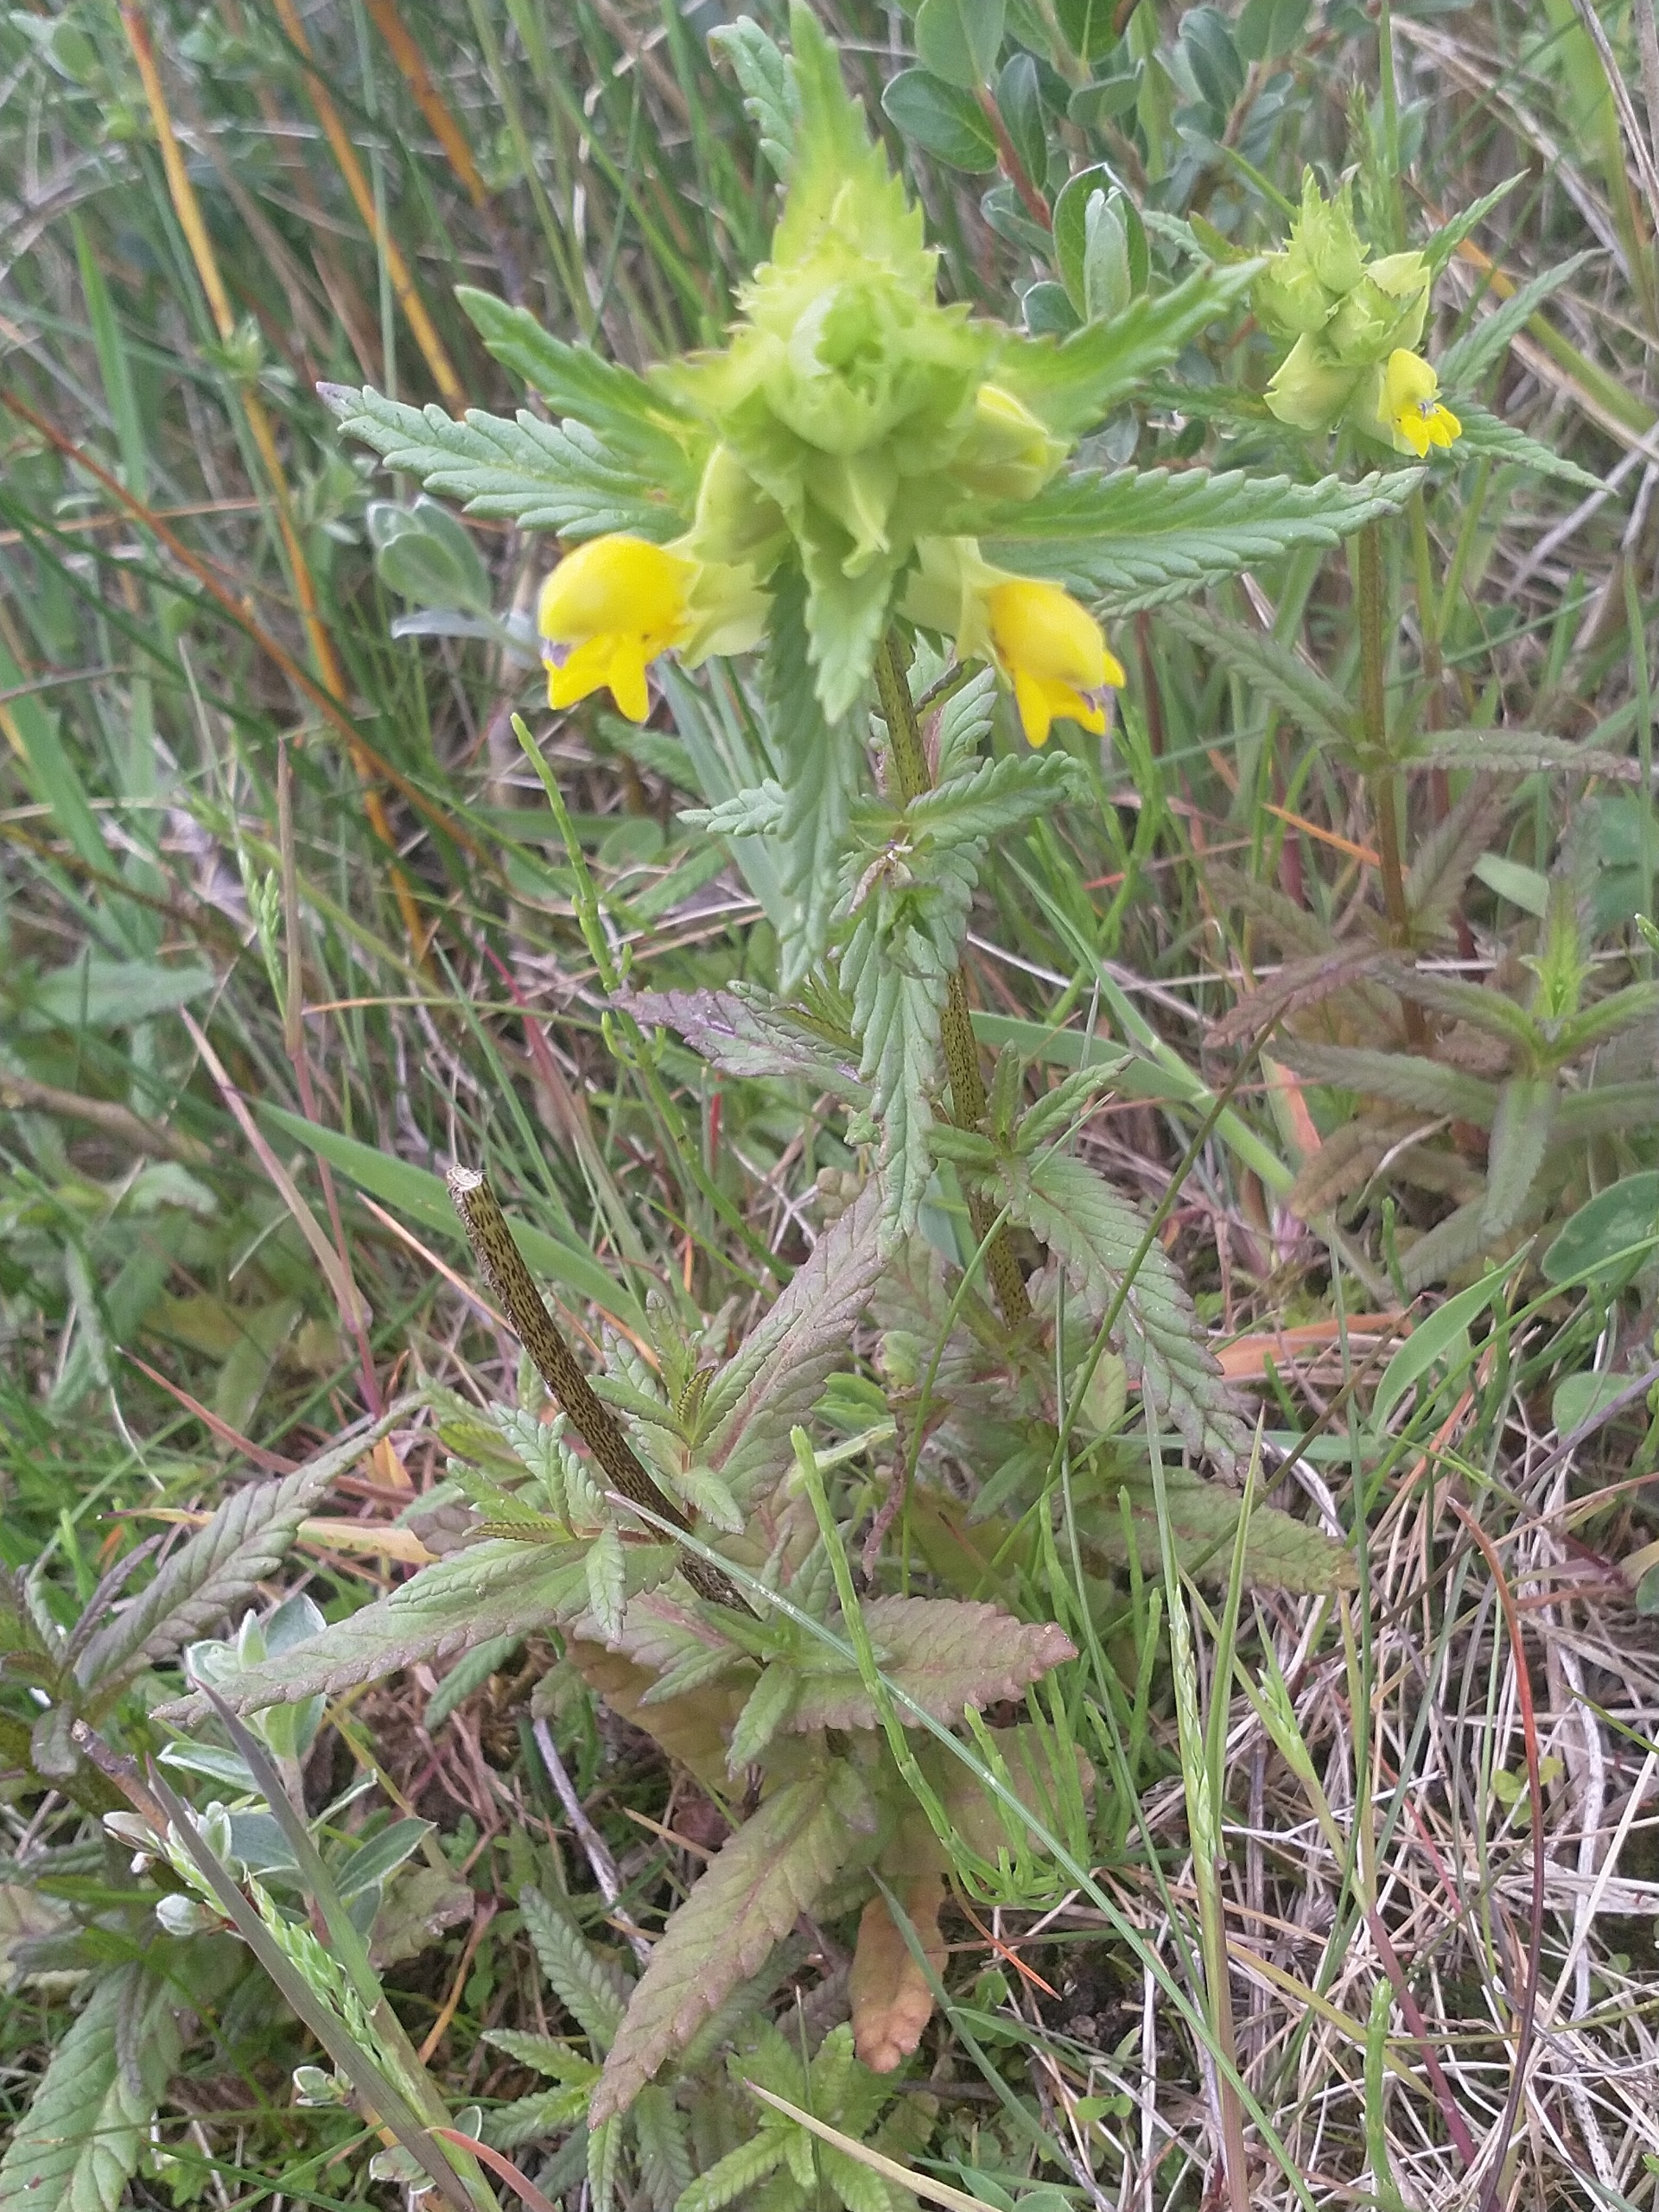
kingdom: Plantae
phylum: Tracheophyta
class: Magnoliopsida
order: Lamiales
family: Orobanchaceae
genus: Rhinanthus
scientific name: Rhinanthus
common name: Stor skjaller
